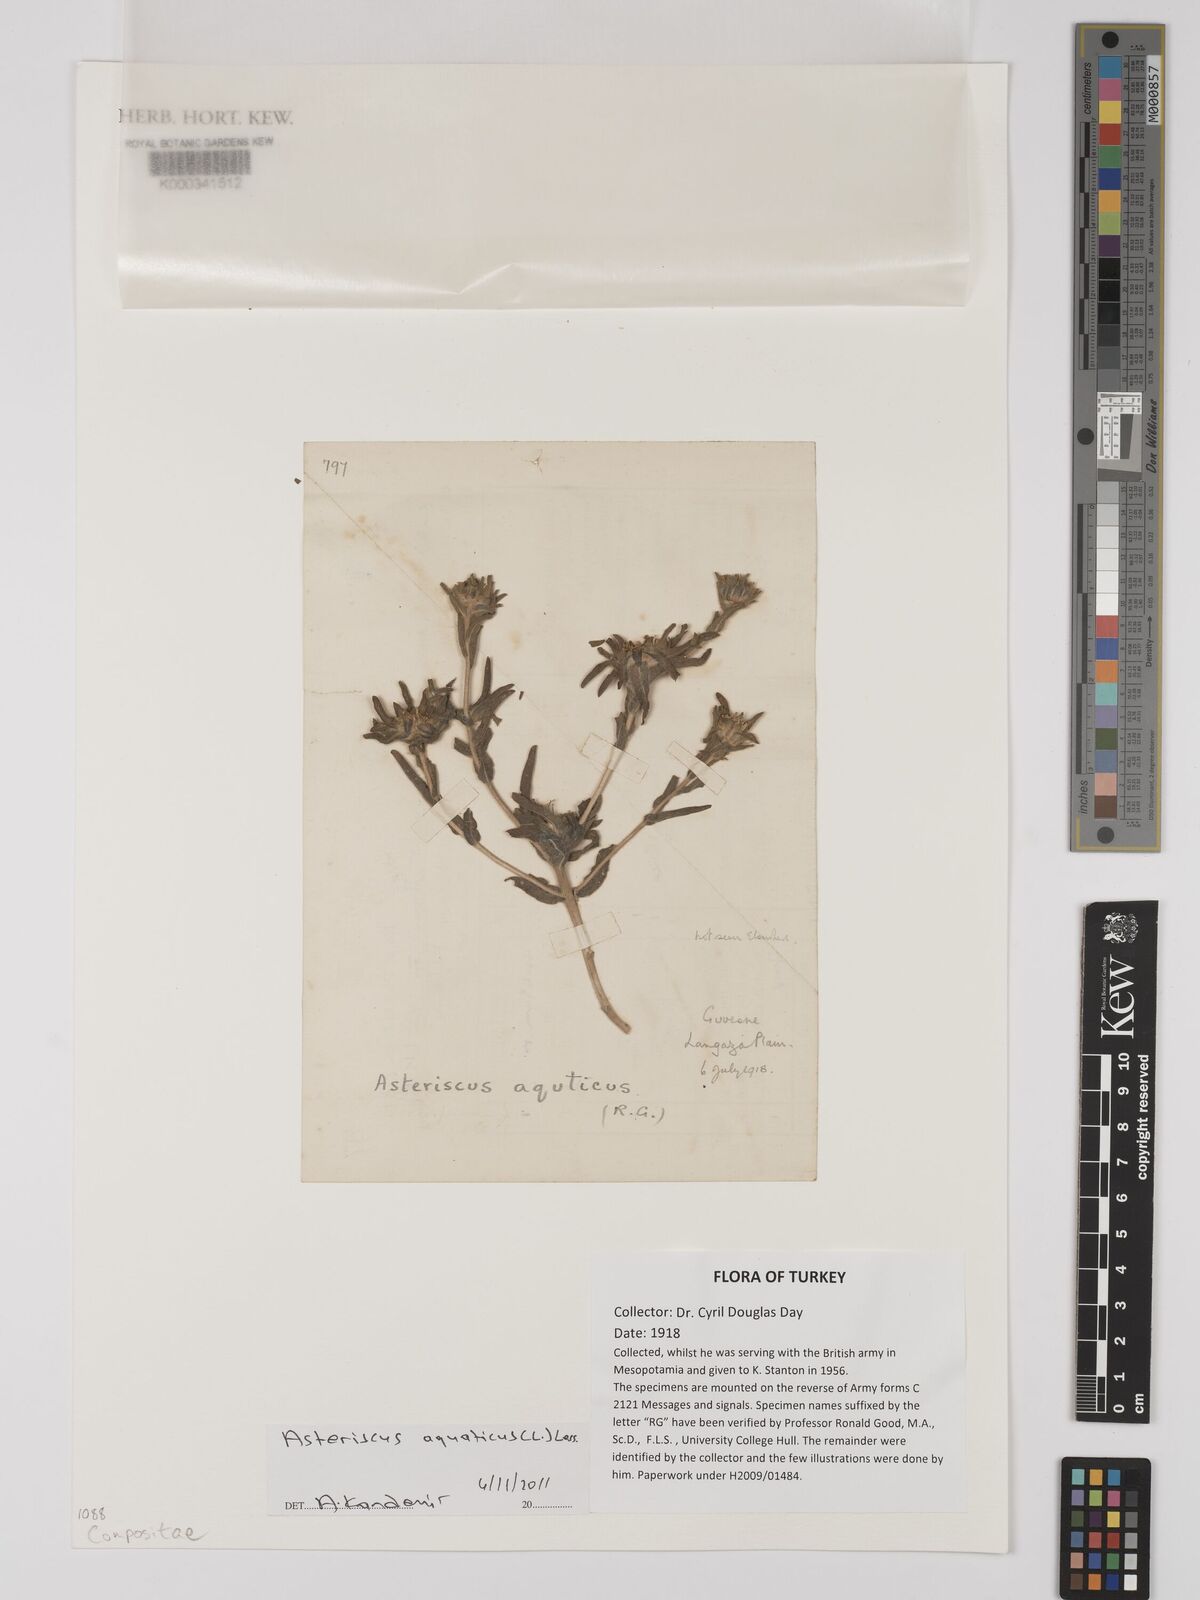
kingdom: Plantae
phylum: Tracheophyta
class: Magnoliopsida
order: Asterales
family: Asteraceae
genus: Asteriscus
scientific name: Asteriscus aquaticus
